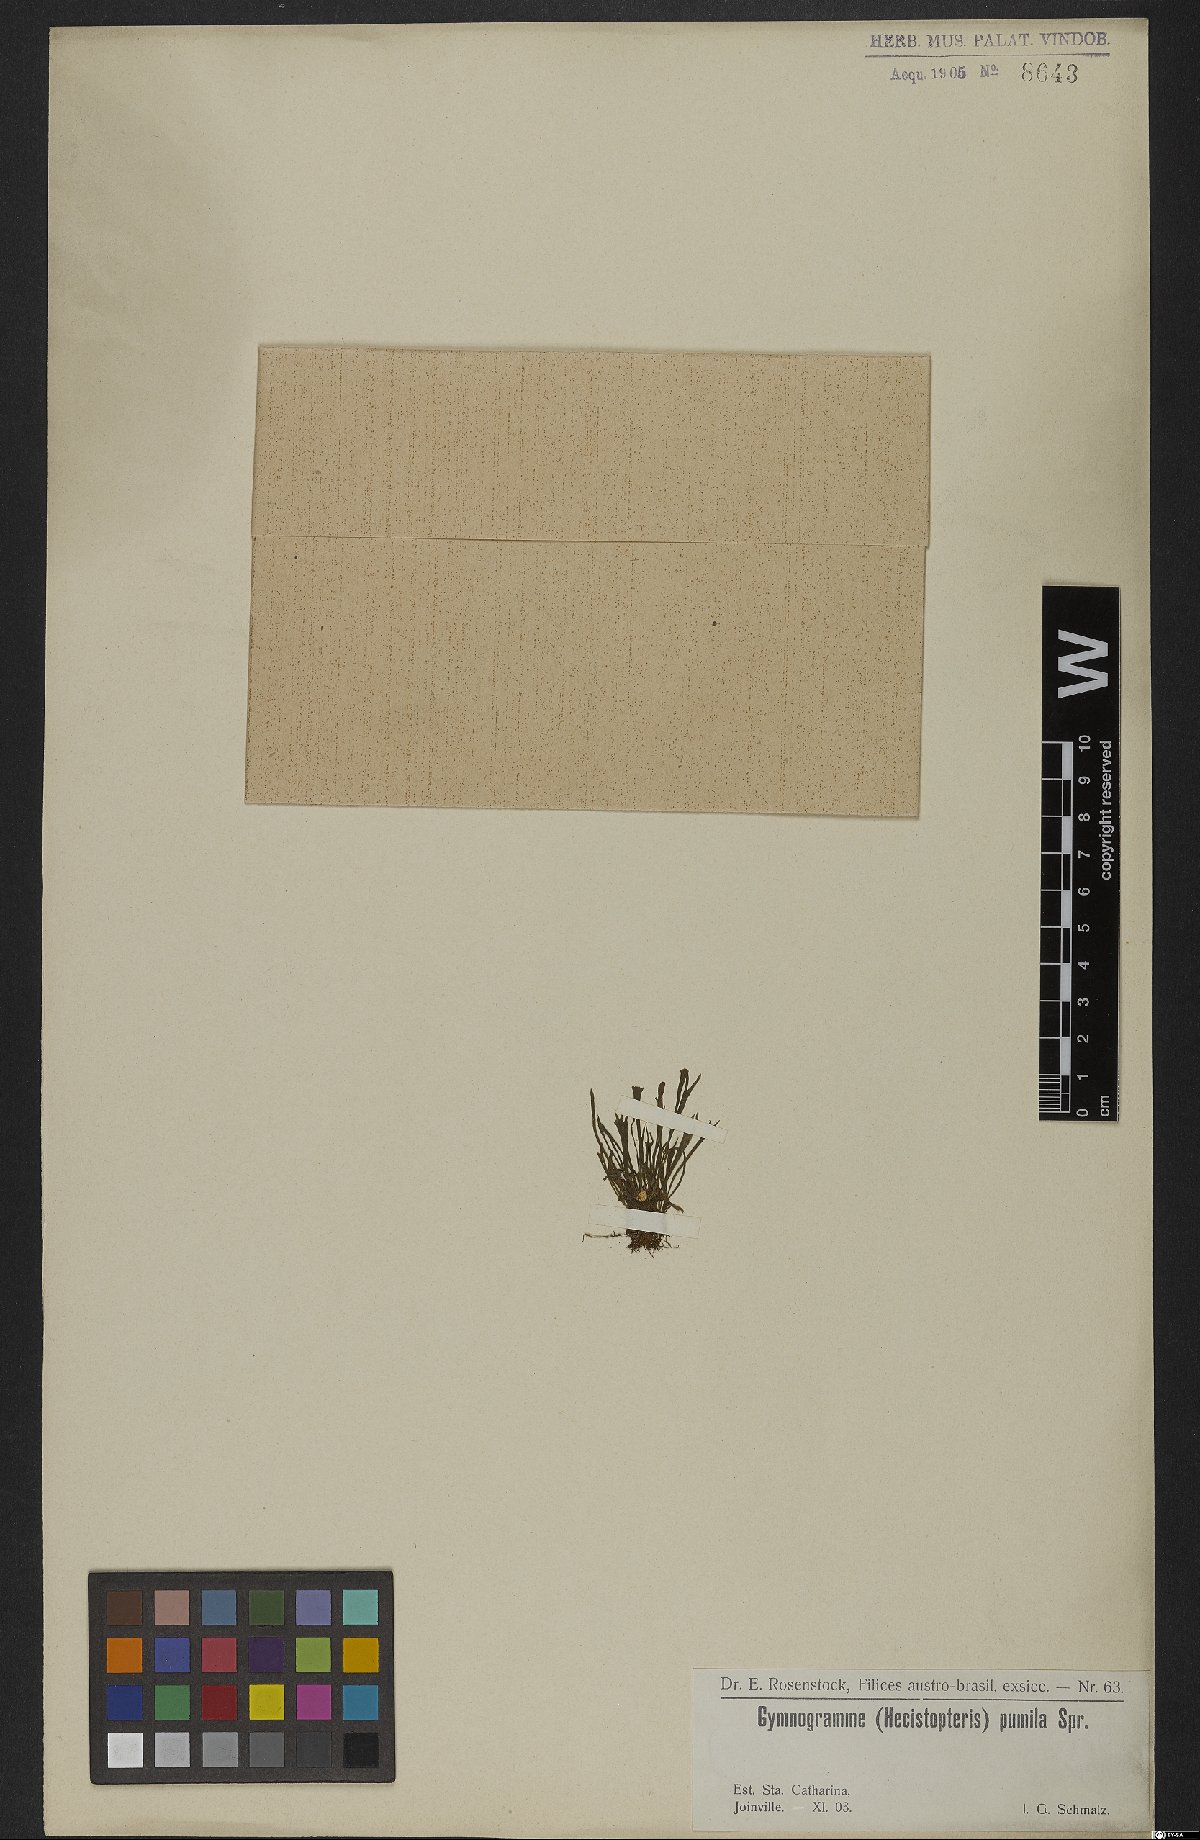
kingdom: Plantae
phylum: Tracheophyta
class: Polypodiopsida
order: Polypodiales
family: Pteridaceae
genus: Hecistopteris
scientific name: Hecistopteris pumila
